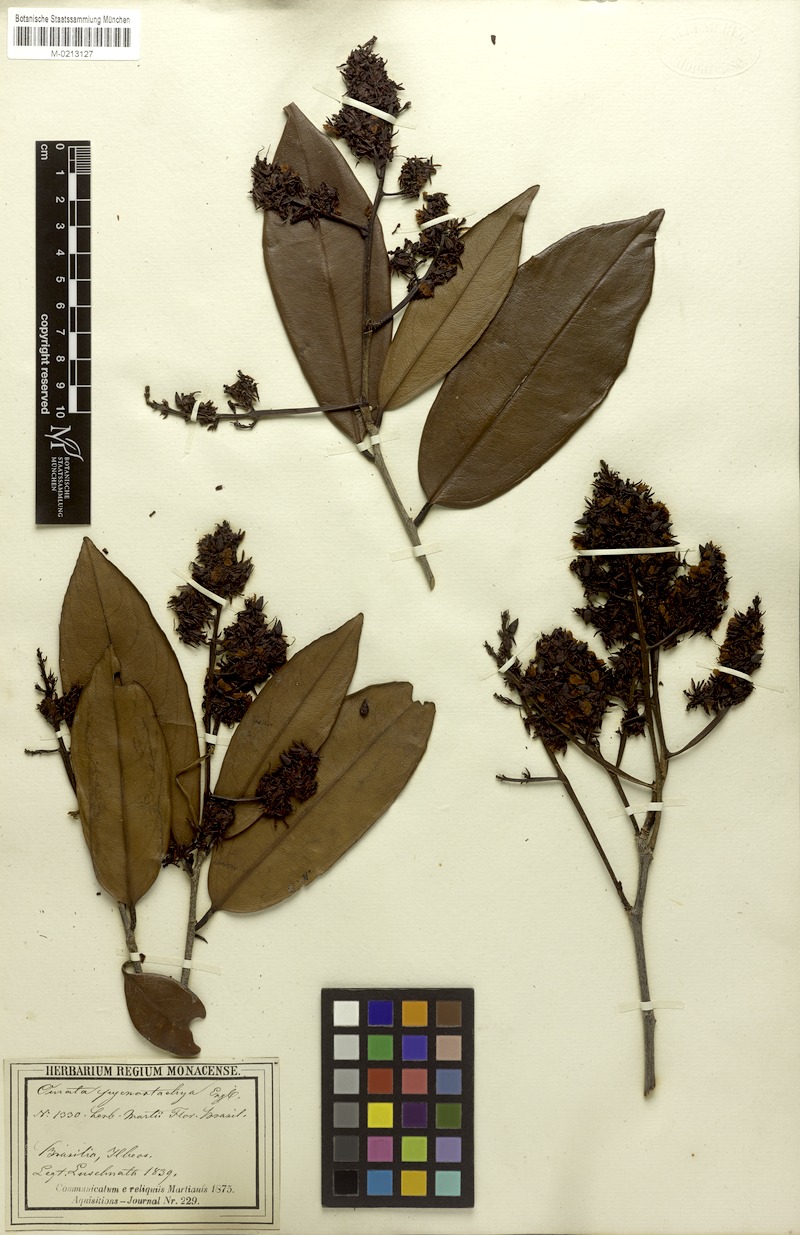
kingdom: Plantae
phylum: Tracheophyta
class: Magnoliopsida
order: Malpighiales
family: Ochnaceae
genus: Ouratea
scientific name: Ouratea pycnostachys
